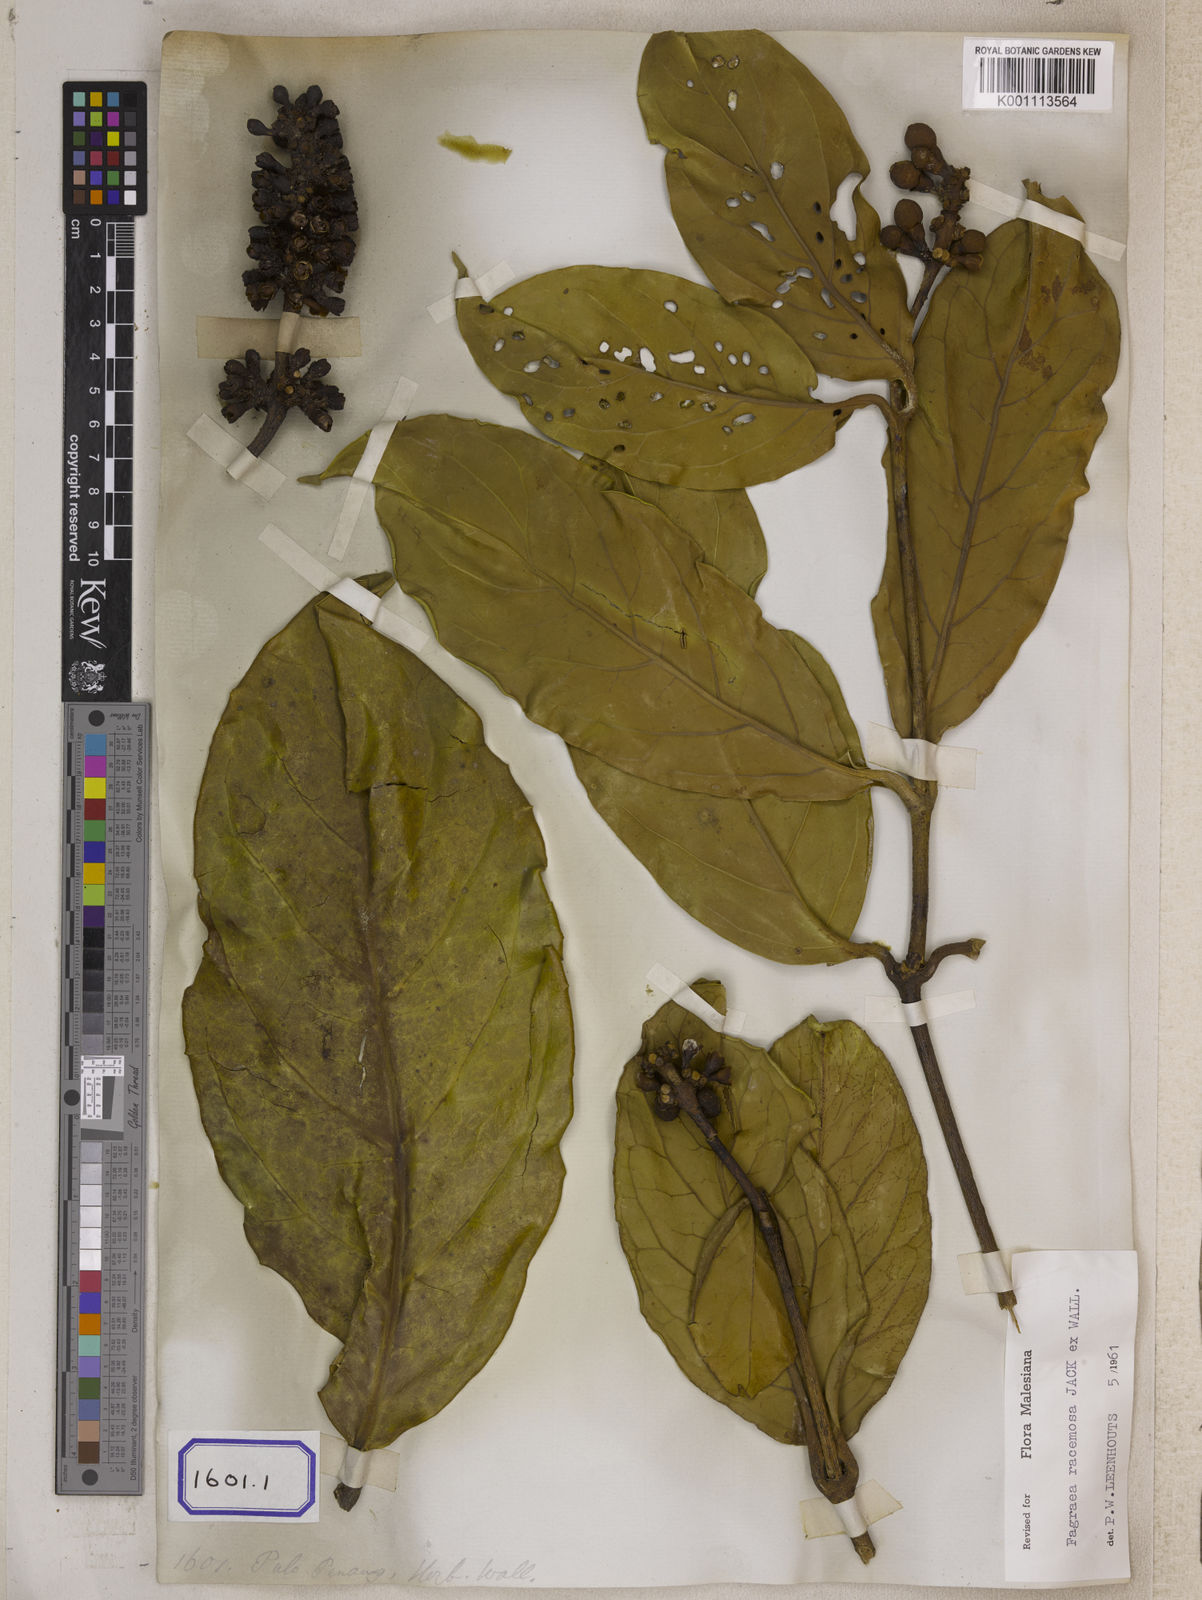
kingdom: Plantae
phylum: Tracheophyta
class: Magnoliopsida
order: Gentianales
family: Gentianaceae
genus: Utania
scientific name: Utania racemosa
